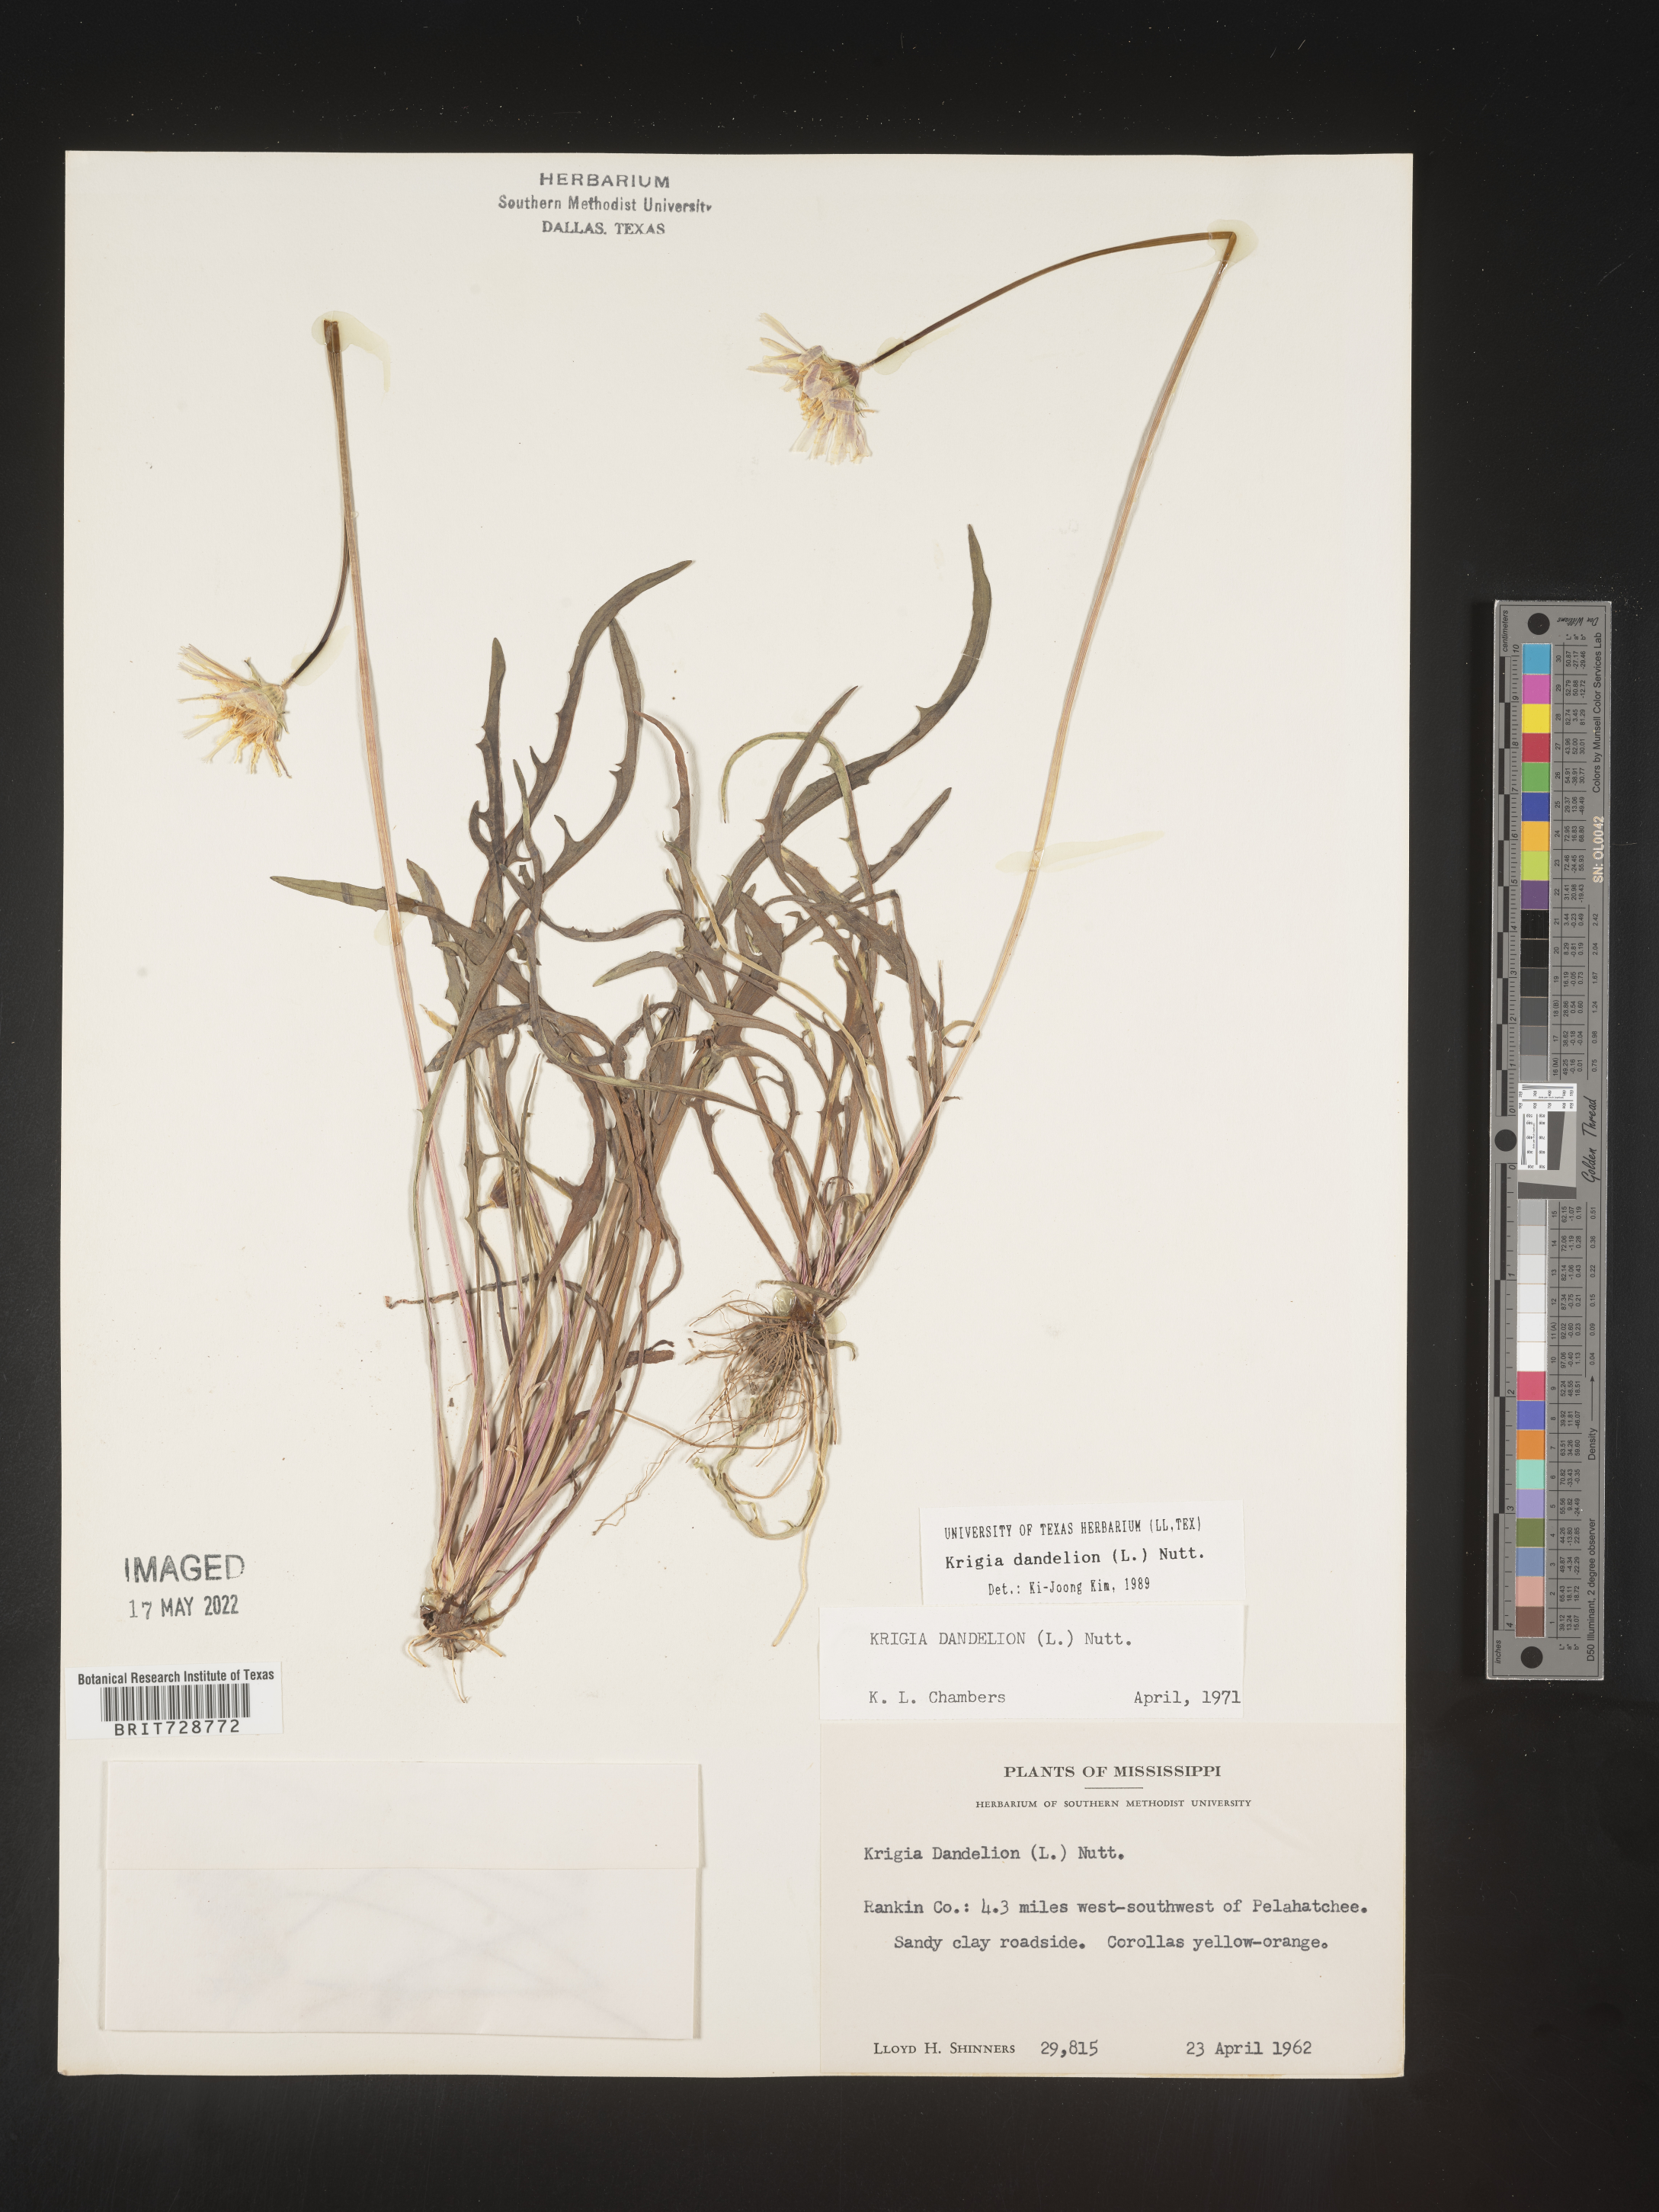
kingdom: Plantae
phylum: Tracheophyta
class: Magnoliopsida
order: Asterales
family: Asteraceae
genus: Krigia
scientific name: Krigia dandelion
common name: Colonial dwarf-dandelion
